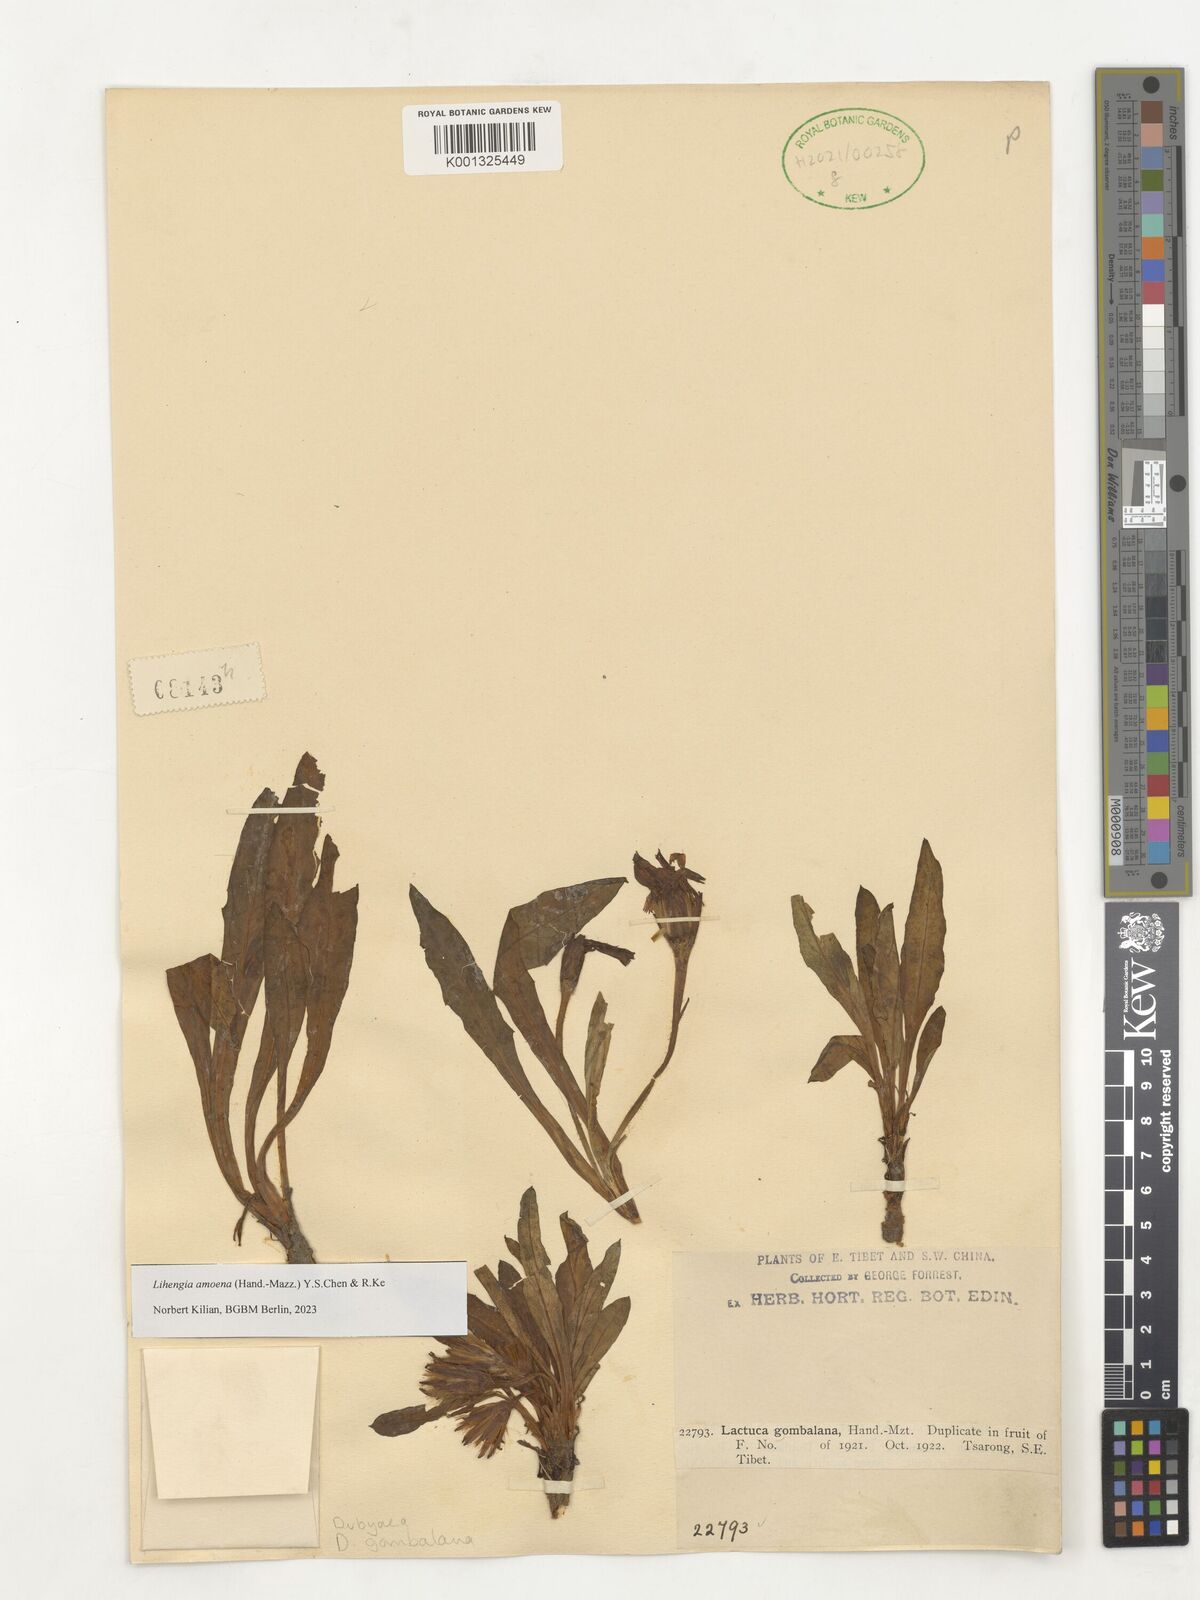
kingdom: Plantae
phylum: Tracheophyta
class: Magnoliopsida
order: Asterales
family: Asteraceae
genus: Lihengia
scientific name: Lihengia amoena
